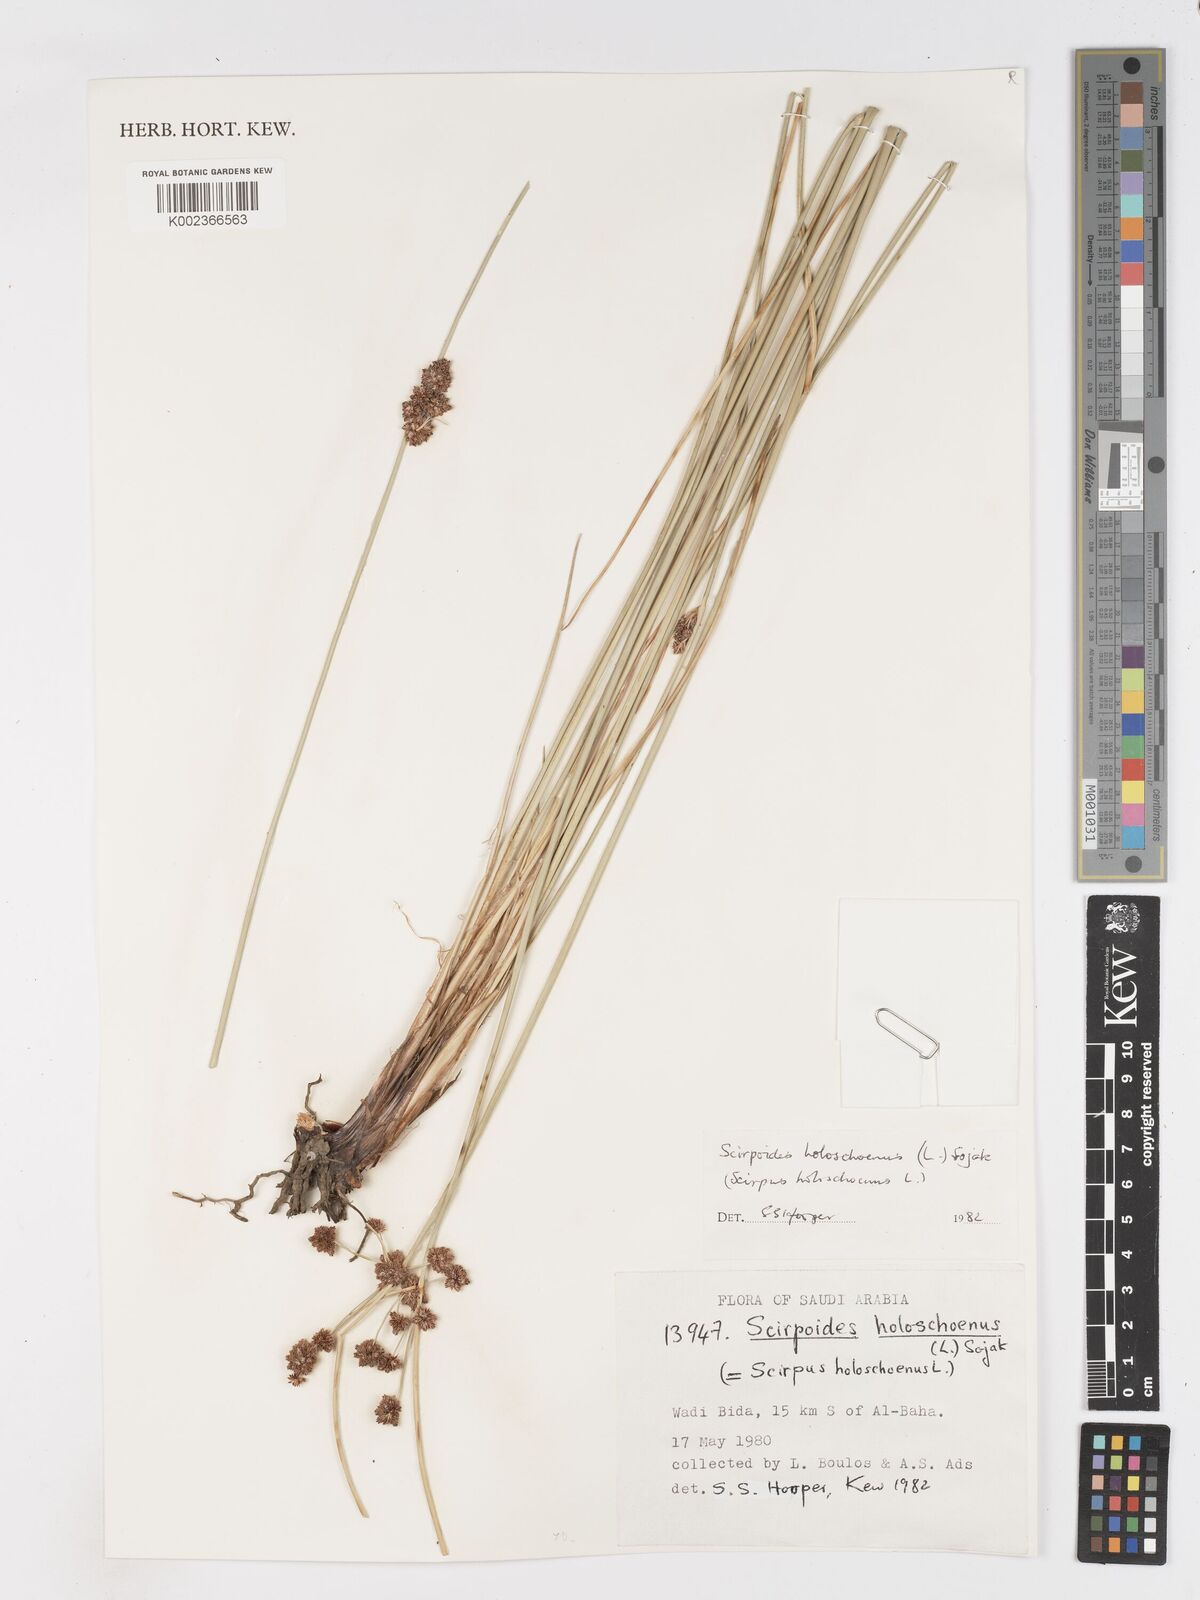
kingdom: Plantae
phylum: Tracheophyta
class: Liliopsida
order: Poales
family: Cyperaceae
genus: Scirpoides
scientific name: Scirpoides holoschoenus
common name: Round-headed club-rush
